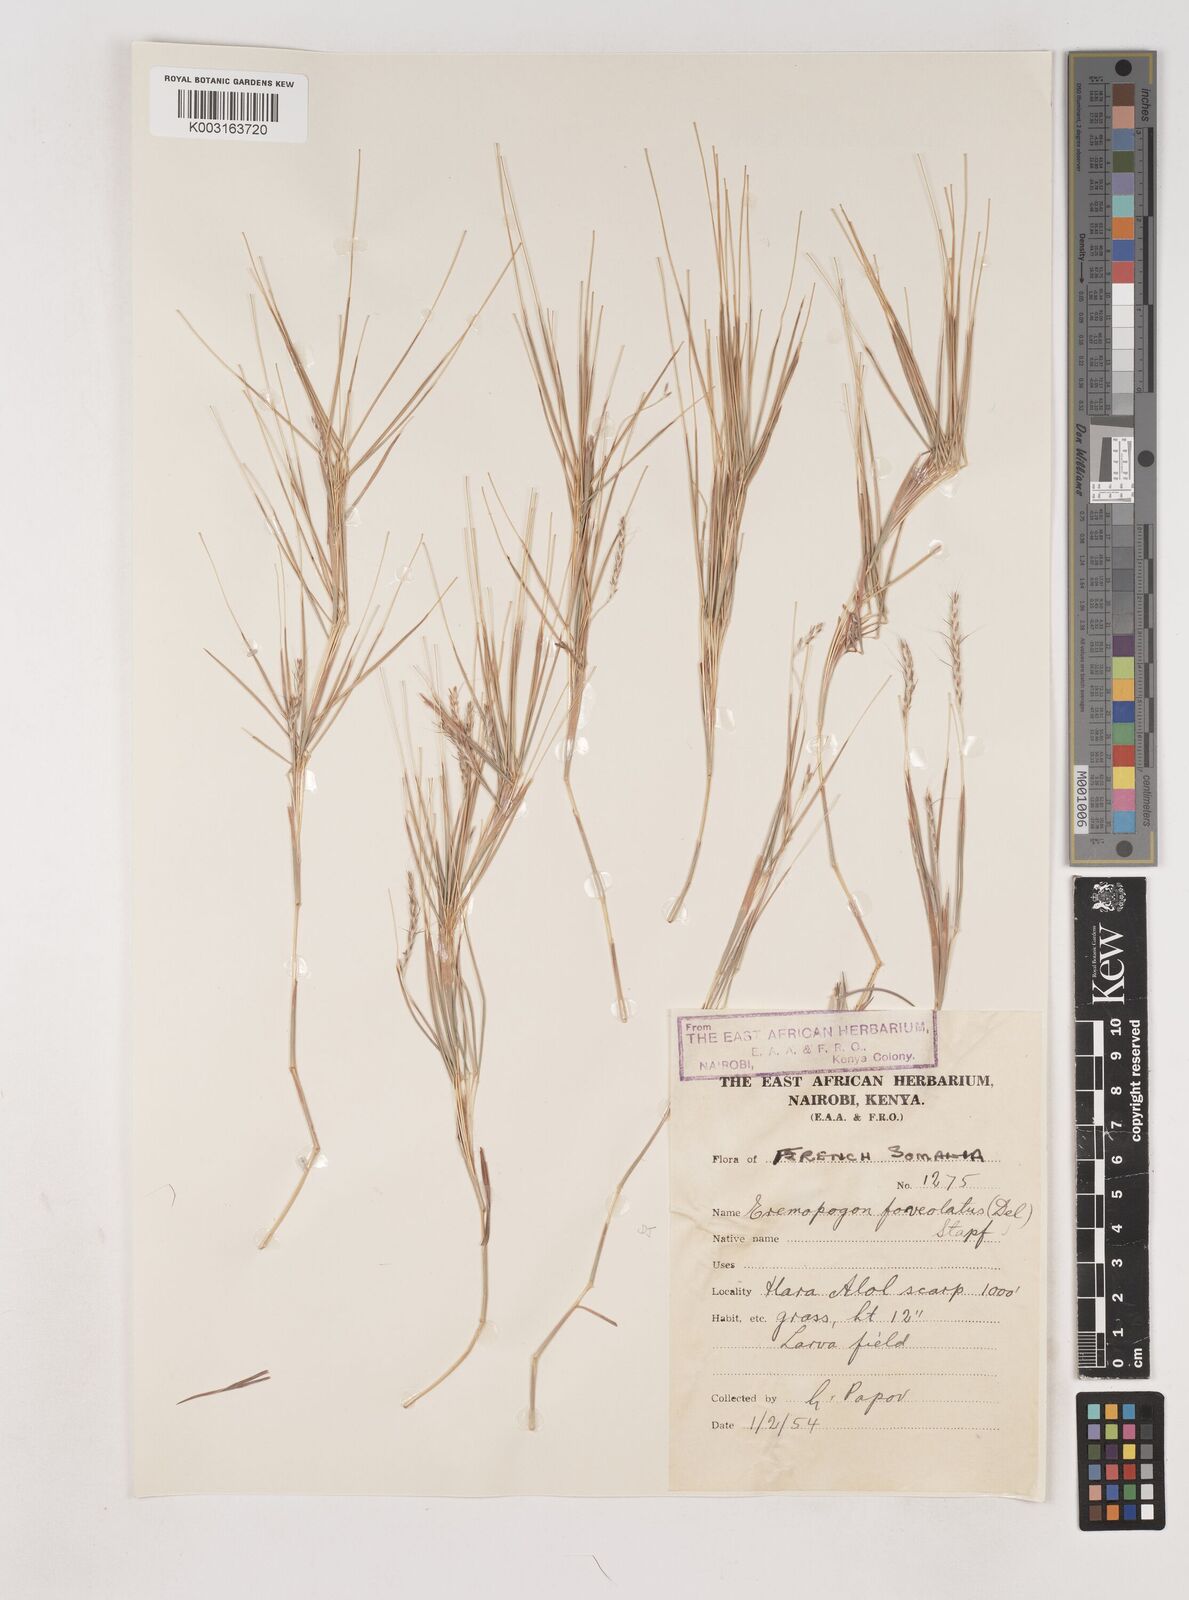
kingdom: Plantae
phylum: Tracheophyta
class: Liliopsida
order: Poales
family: Poaceae
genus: Dichanthium
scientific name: Dichanthium foveolatum
